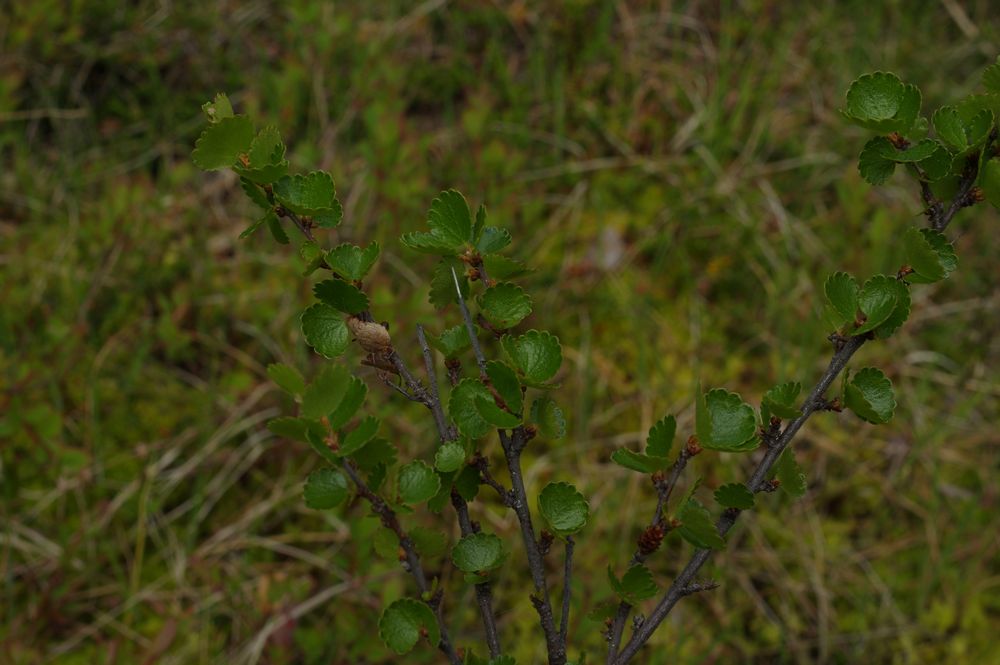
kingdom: Plantae
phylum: Tracheophyta
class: Magnoliopsida
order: Fagales
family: Betulaceae
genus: Betula
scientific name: Betula nana
